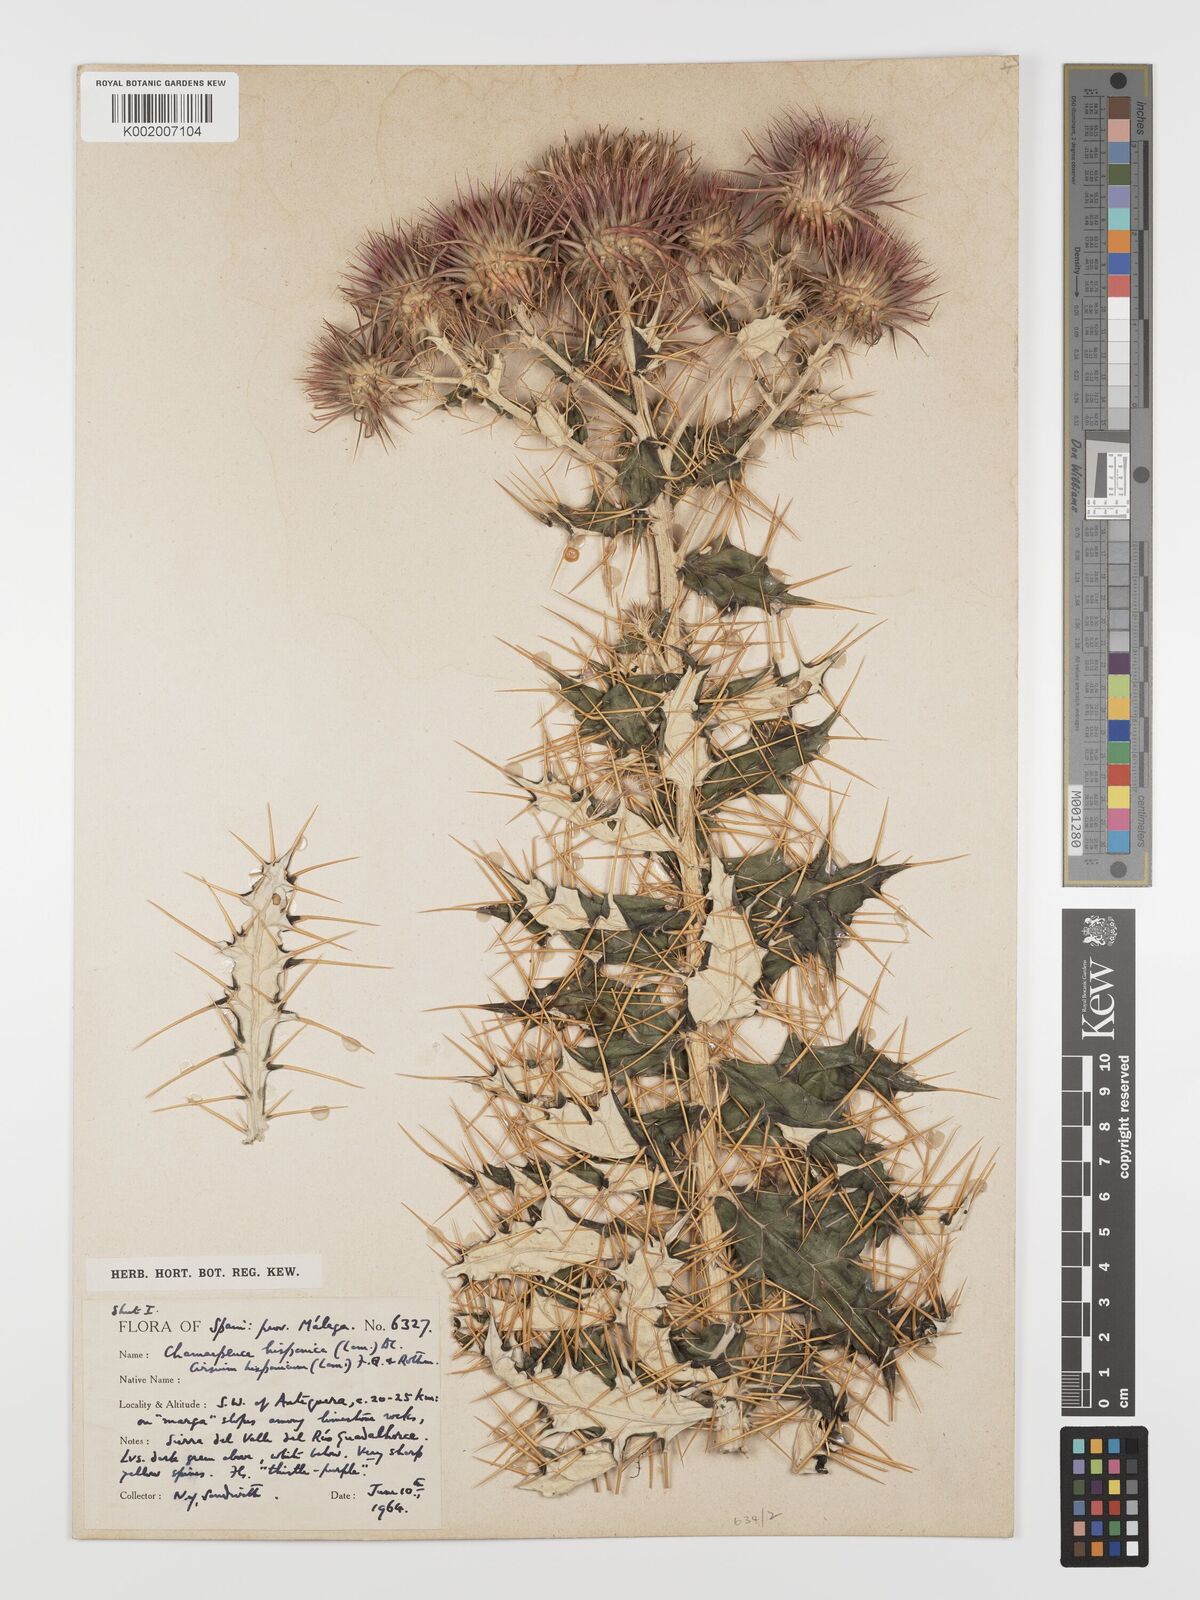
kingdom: Plantae
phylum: Tracheophyta
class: Magnoliopsida
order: Asterales
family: Asteraceae
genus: Ptilostemon
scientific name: Ptilostemon hispanicus
